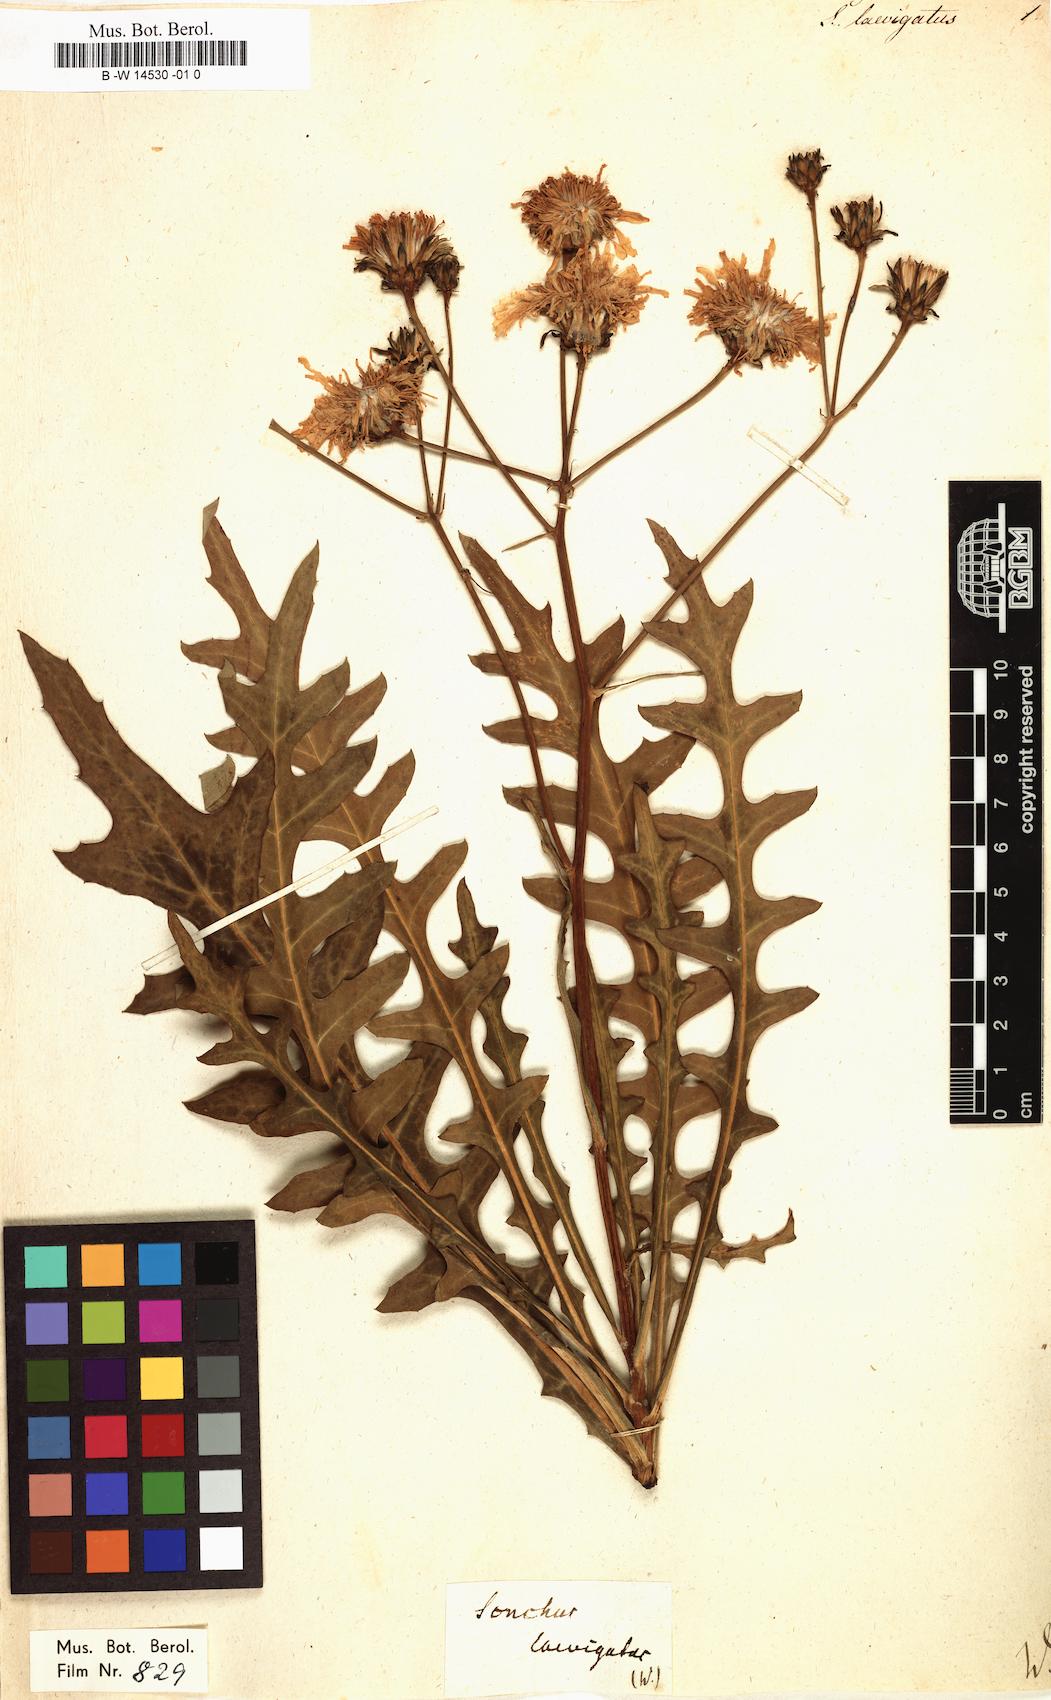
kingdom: Plantae
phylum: Tracheophyta
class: Magnoliopsida
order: Asterales
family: Asteraceae
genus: Sonchus
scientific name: Sonchus fruticosus
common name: Shrubby sow-thistle
